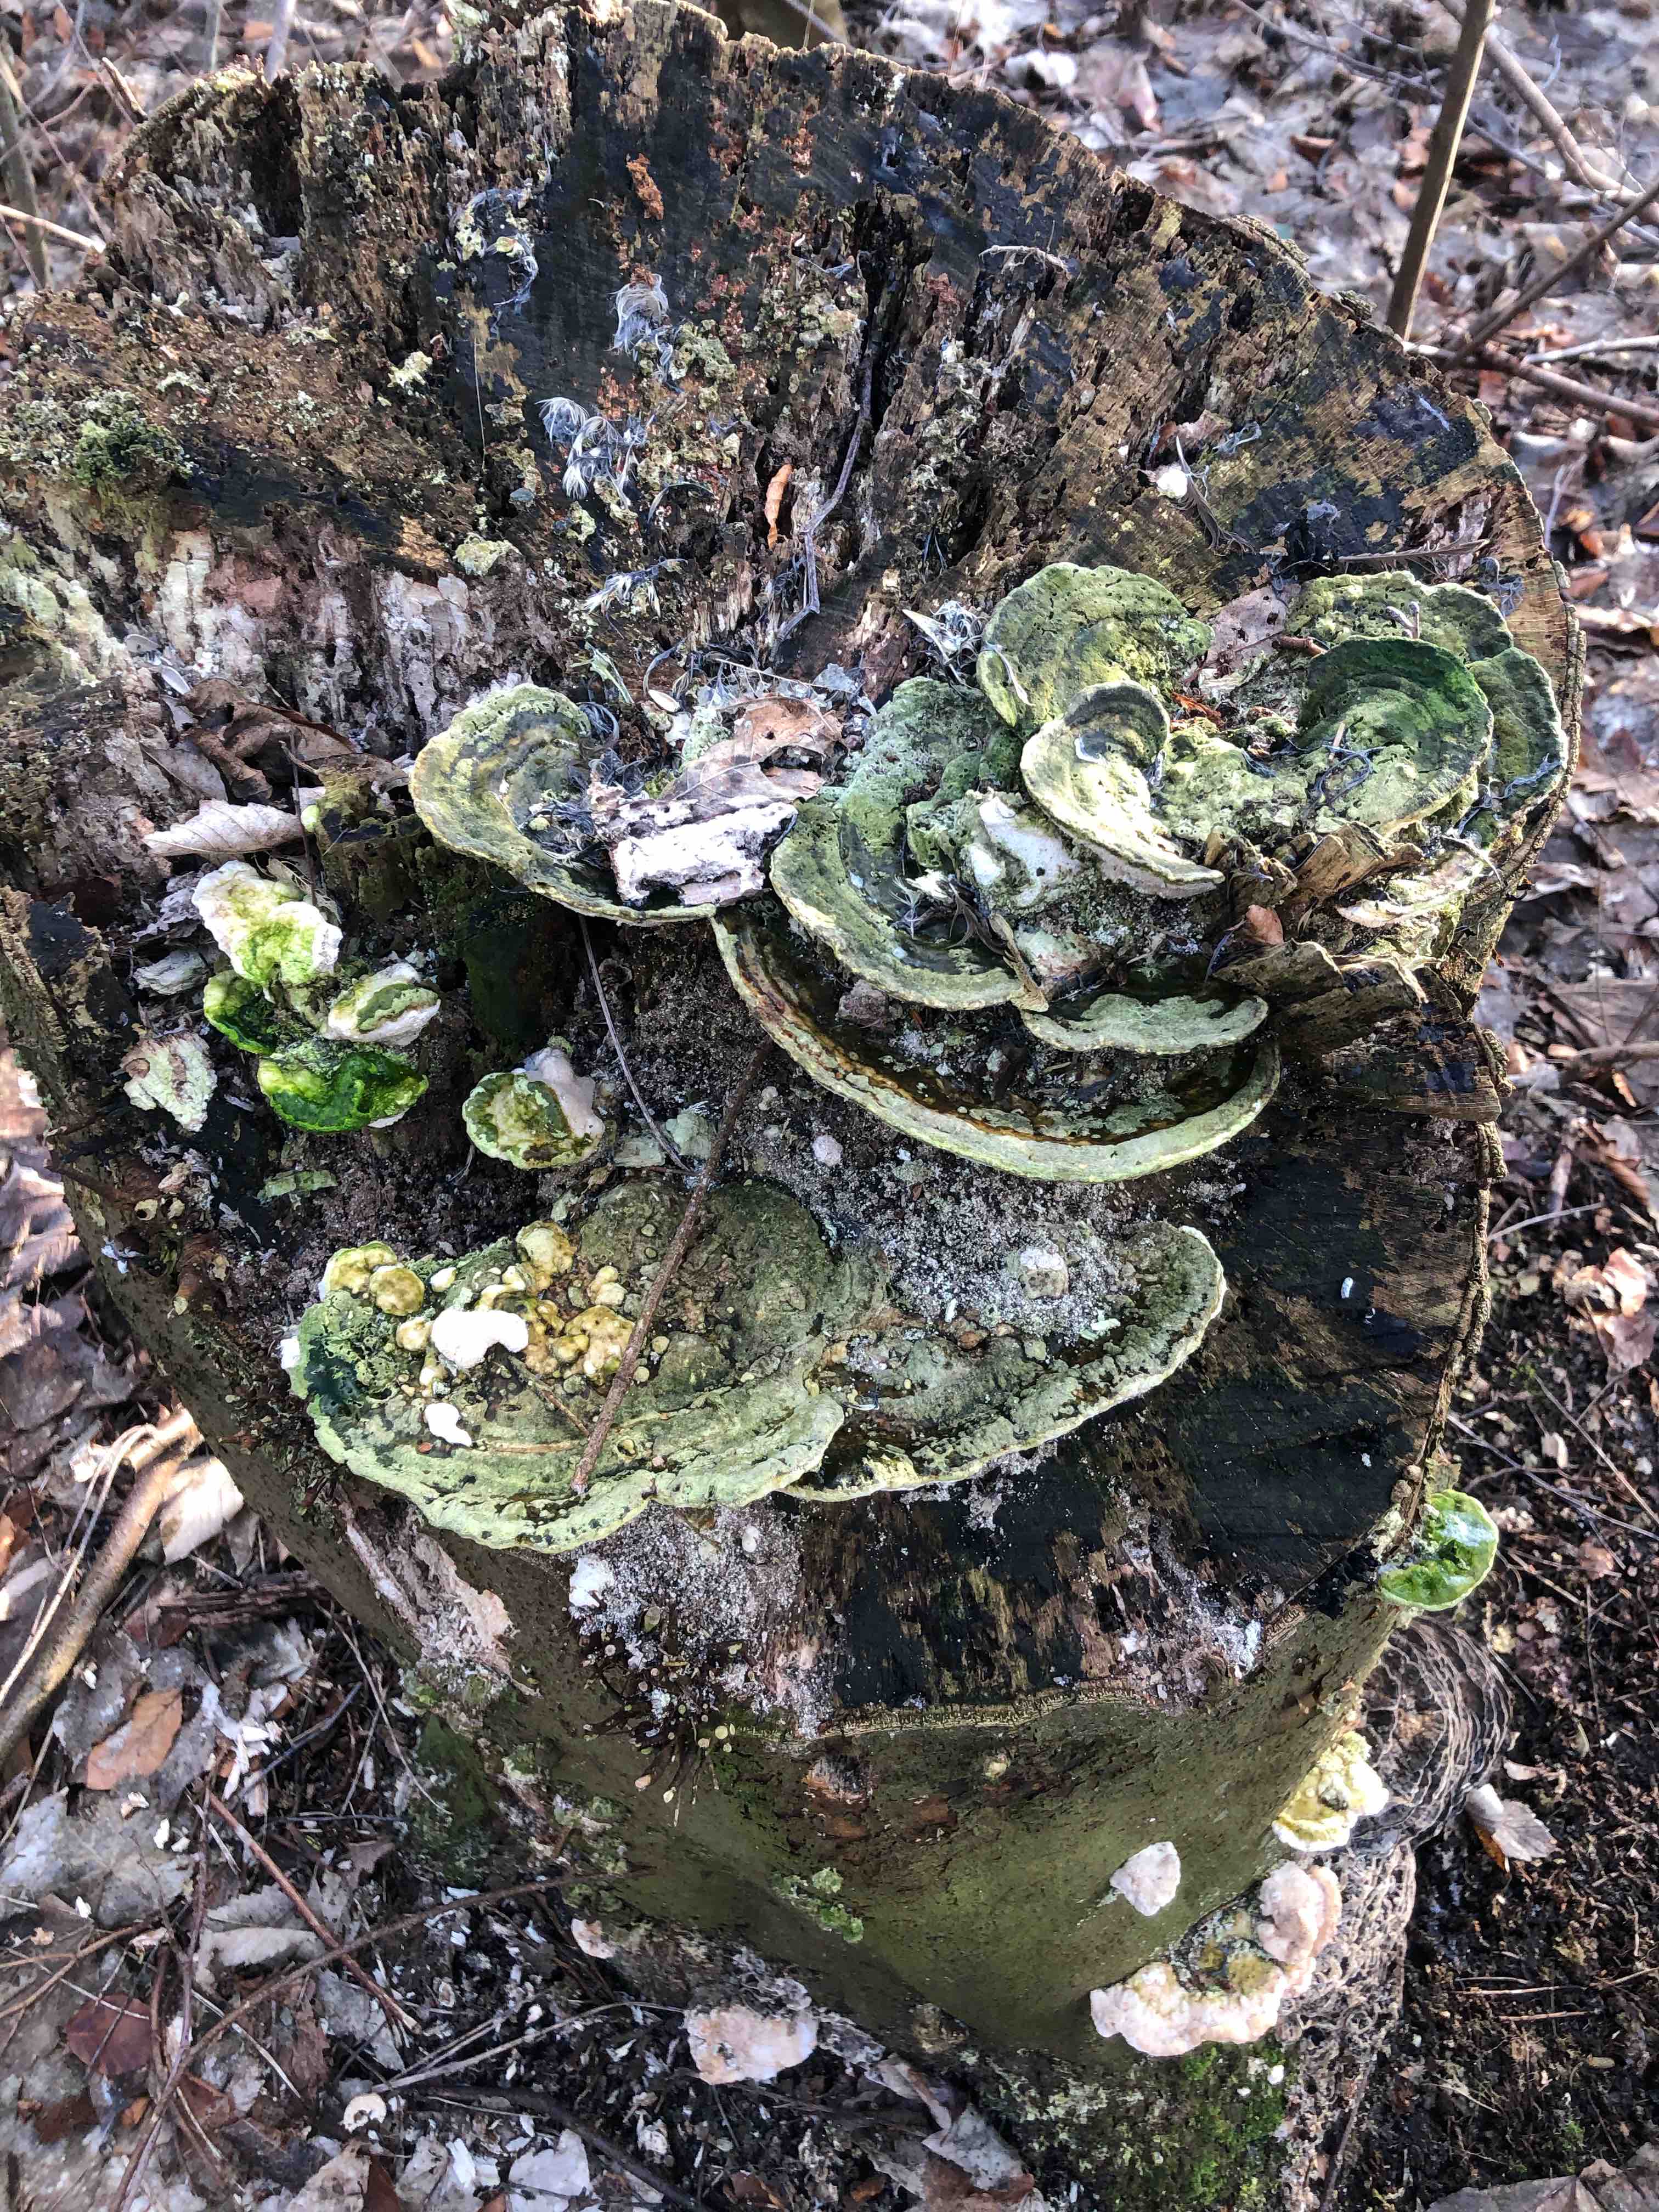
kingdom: Fungi
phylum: Basidiomycota
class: Agaricomycetes
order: Polyporales
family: Polyporaceae
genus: Trametes
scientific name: Trametes gibbosa
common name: puklet læderporesvamp
